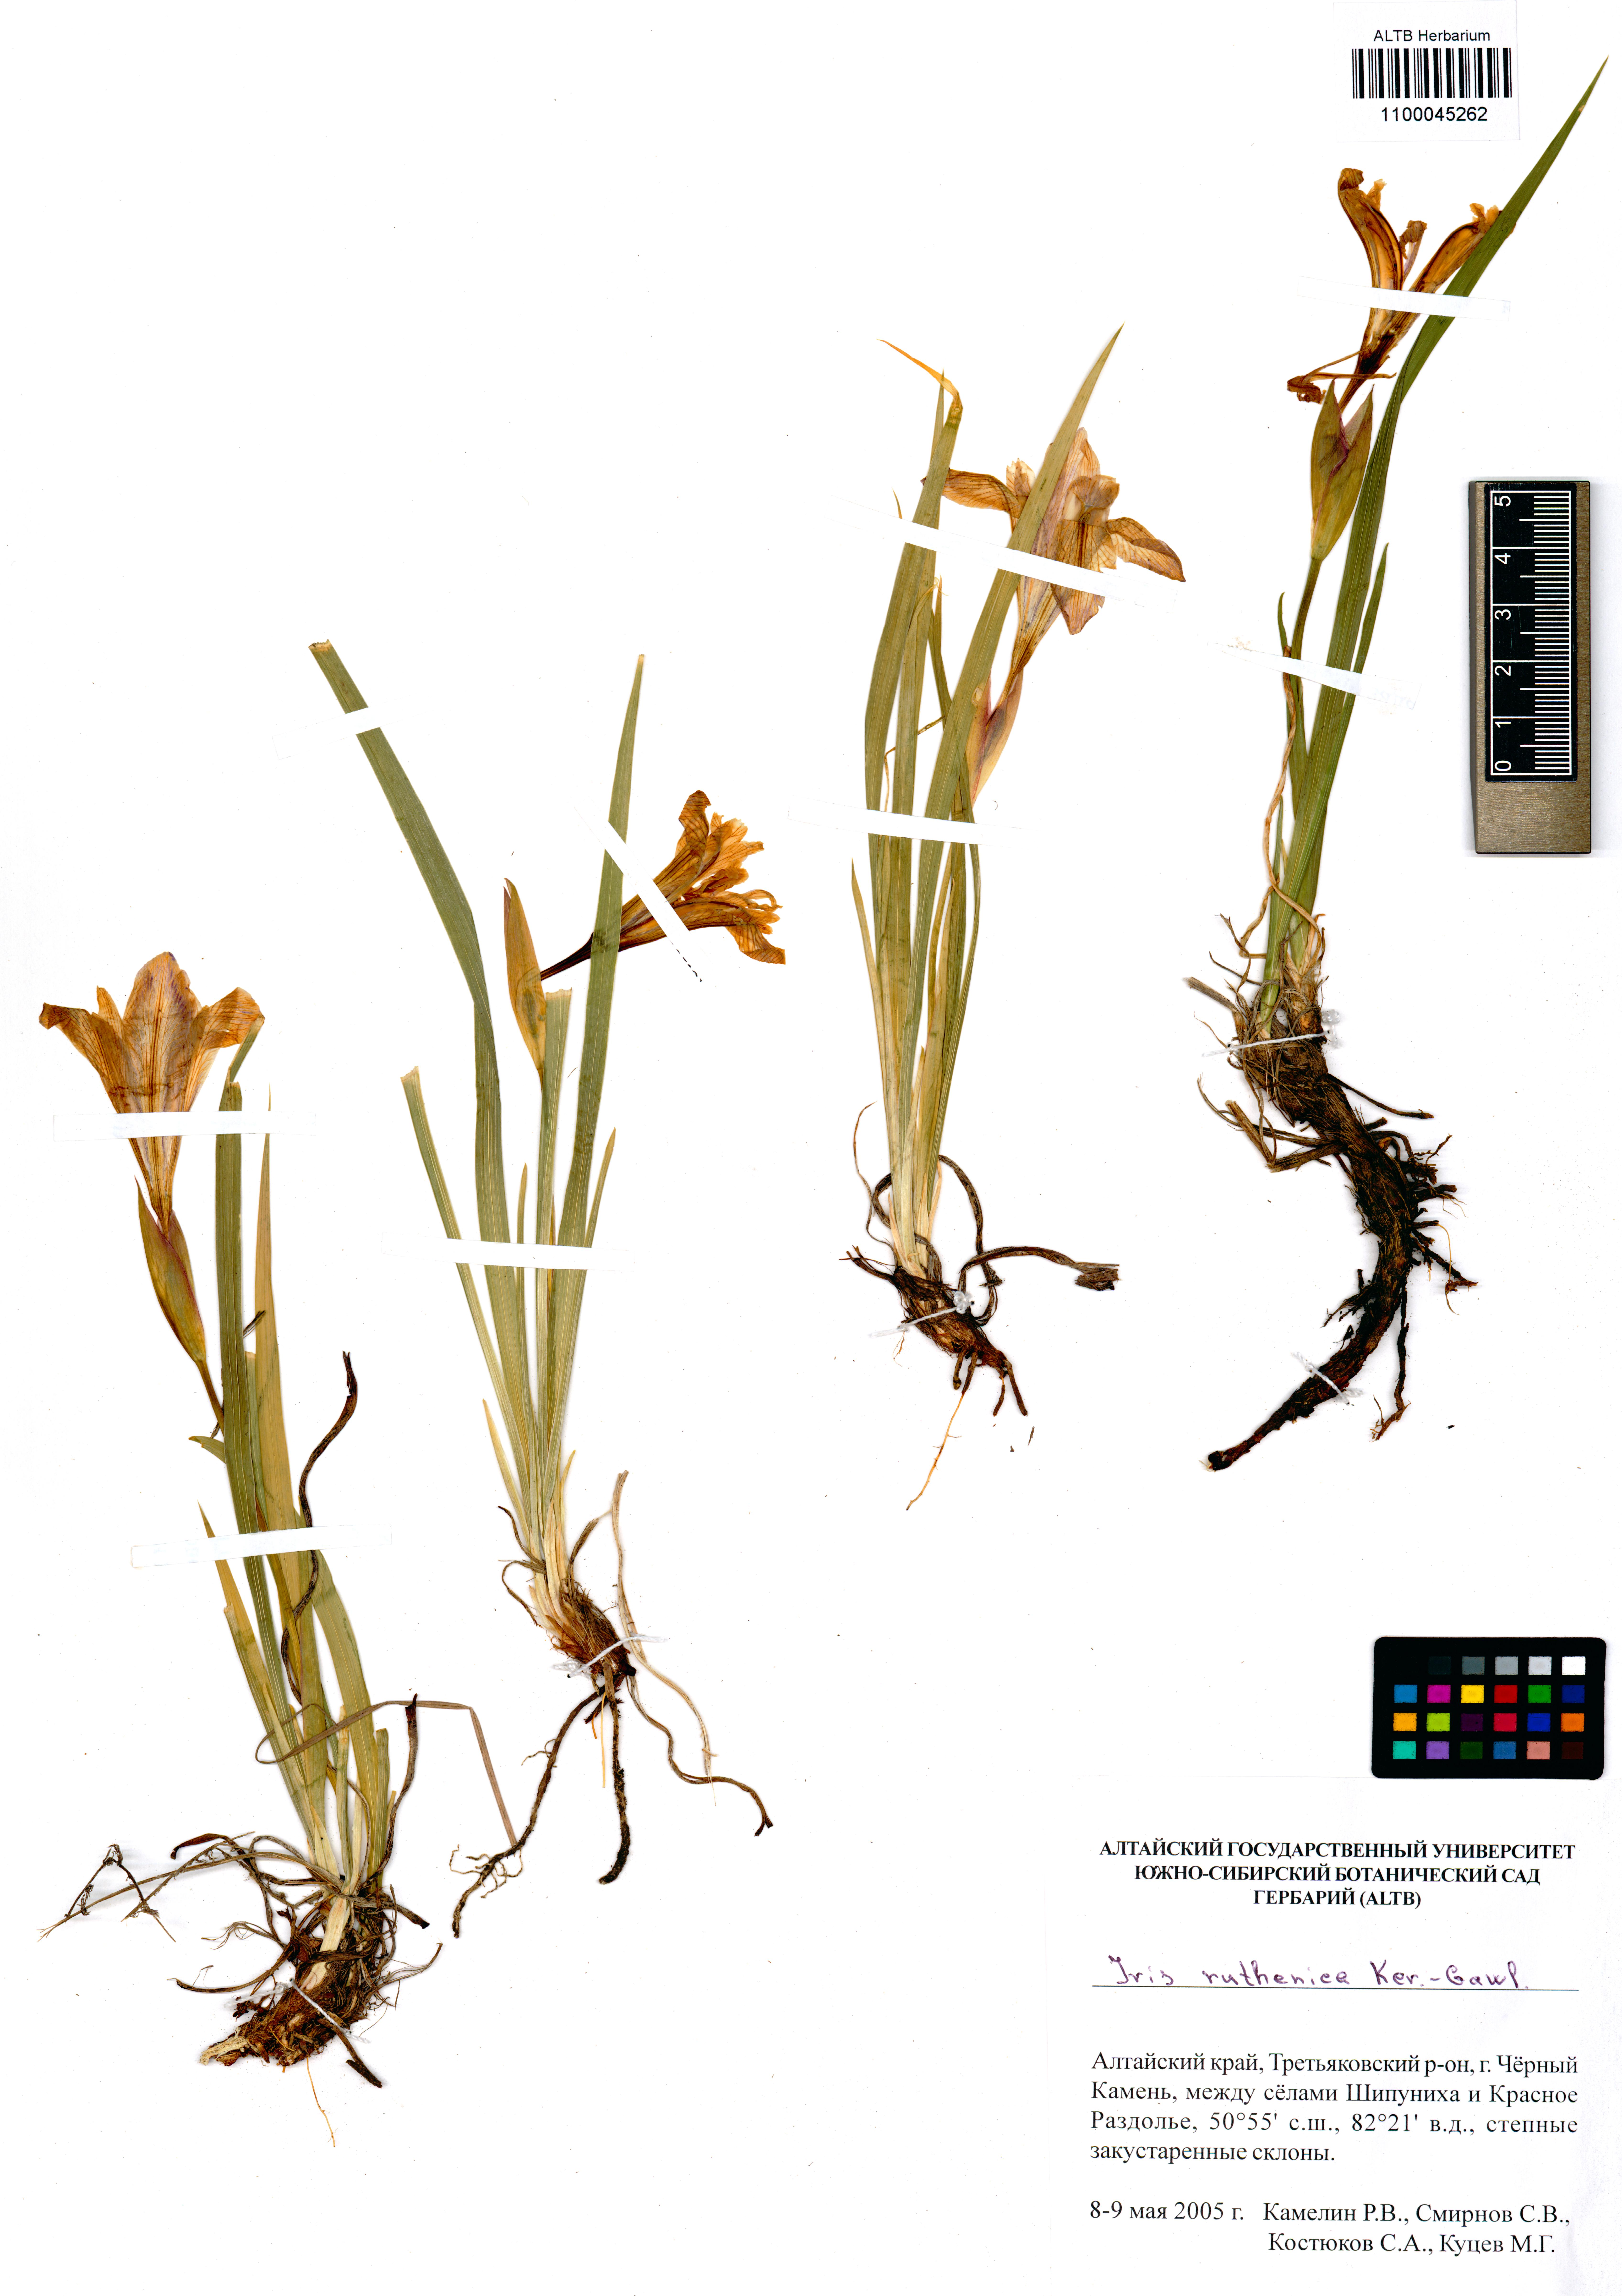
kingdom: Plantae
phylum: Tracheophyta
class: Liliopsida
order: Asparagales
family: Iridaceae
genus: Iris
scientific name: Iris ruthenica
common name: Purple-bract iris
